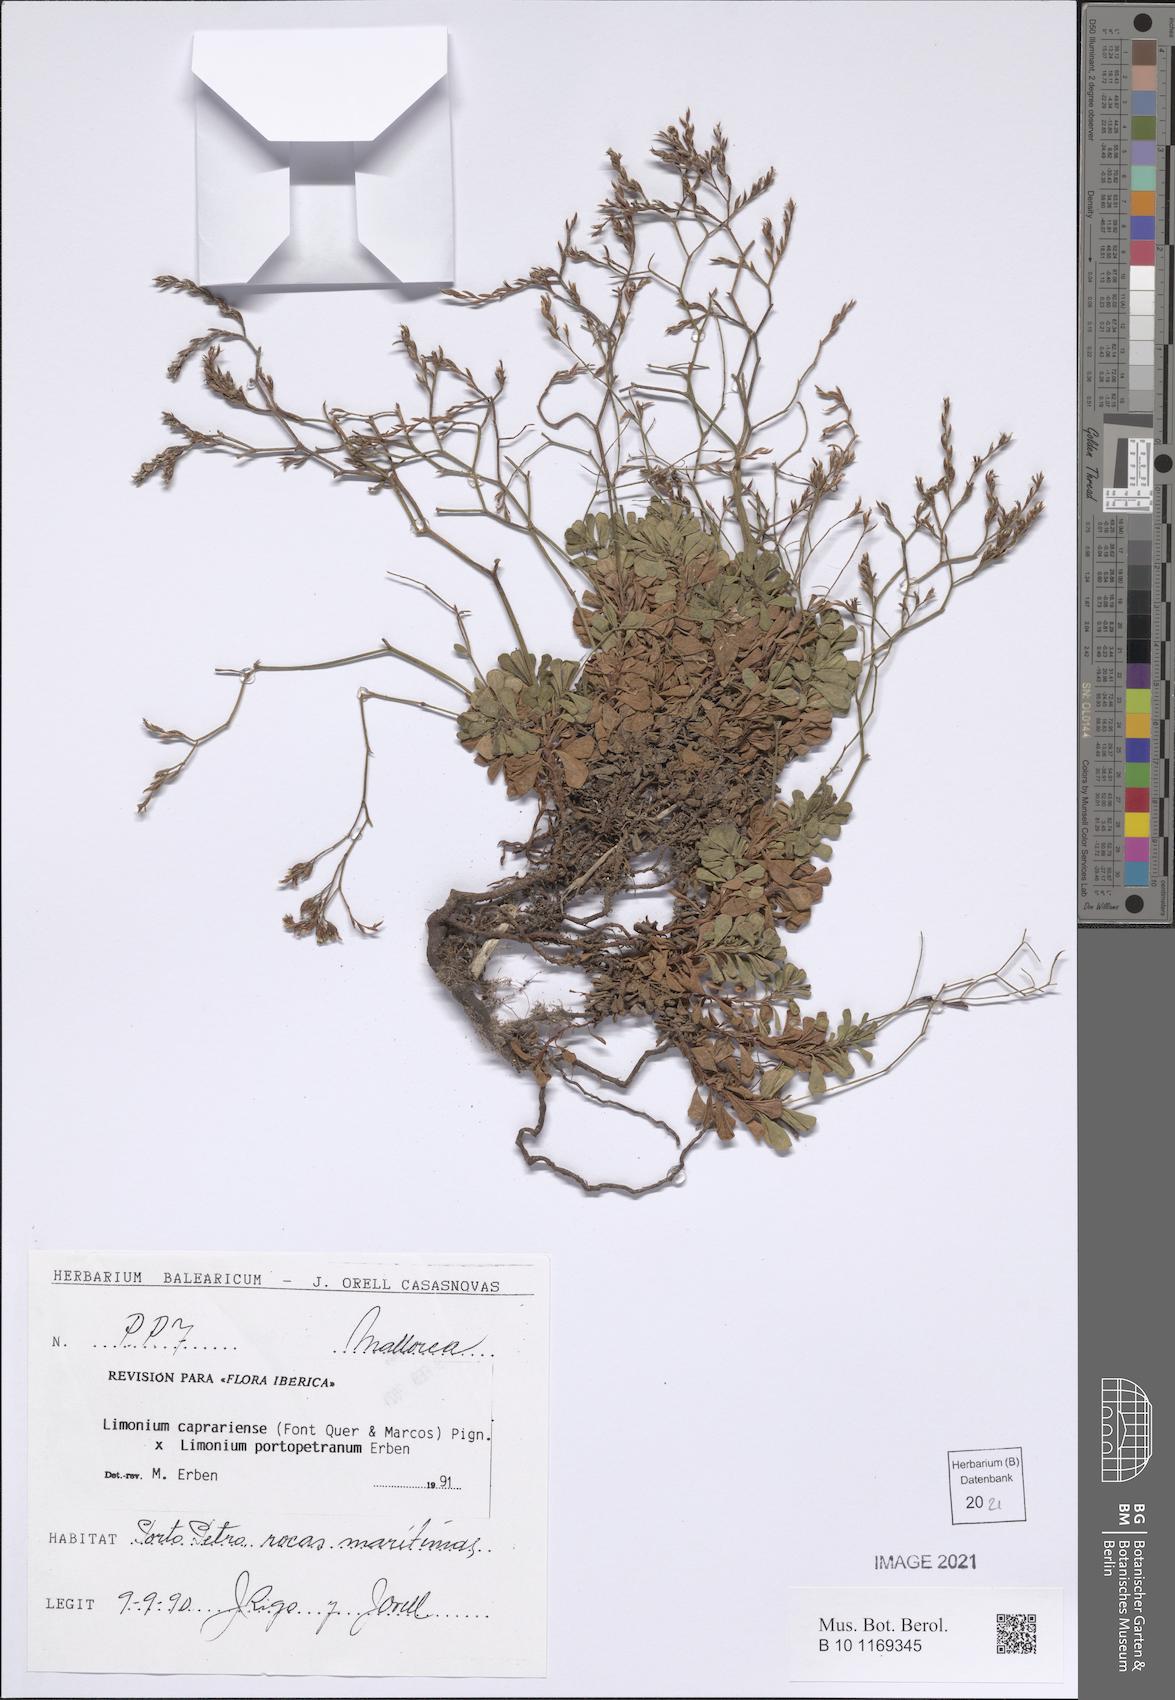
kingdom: Plantae
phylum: Tracheophyta
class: Magnoliopsida
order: Caryophyllales
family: Plumbaginaceae
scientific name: Plumbaginaceae
